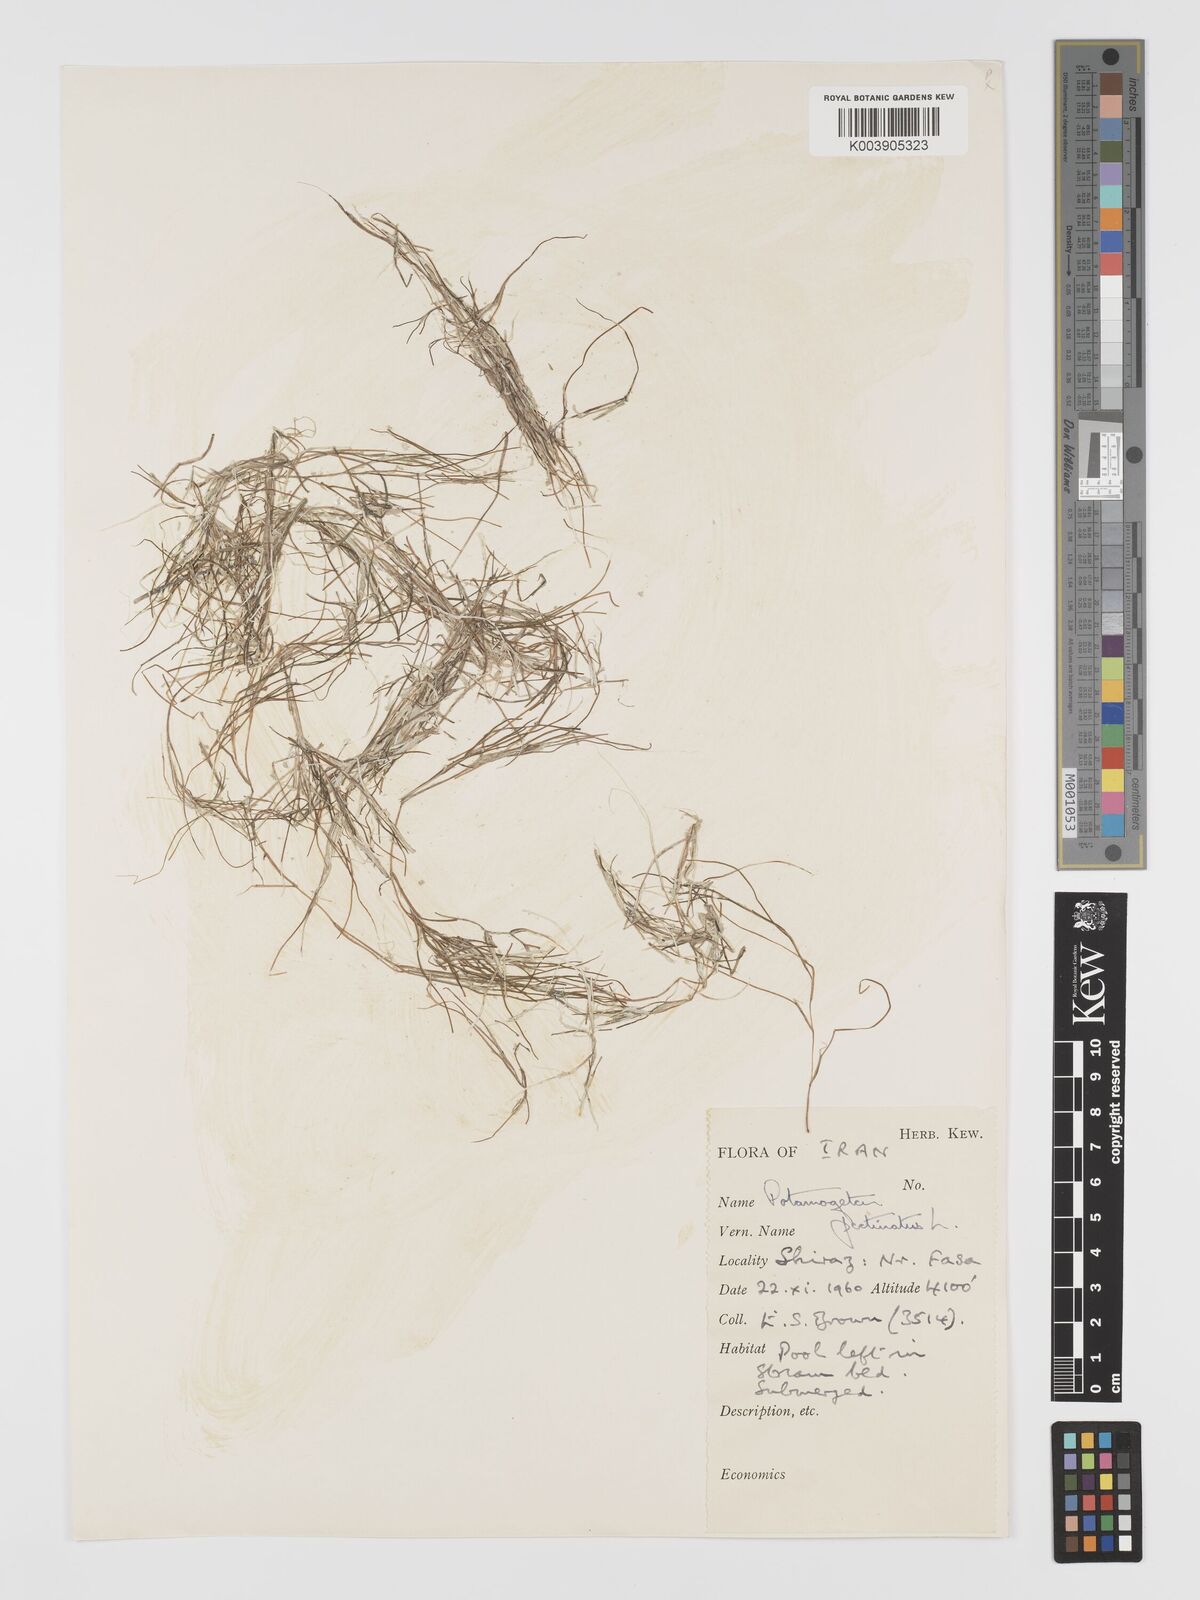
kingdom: Plantae
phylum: Tracheophyta
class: Liliopsida
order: Alismatales
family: Potamogetonaceae
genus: Stuckenia
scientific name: Stuckenia pectinata
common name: Sago pondweed
